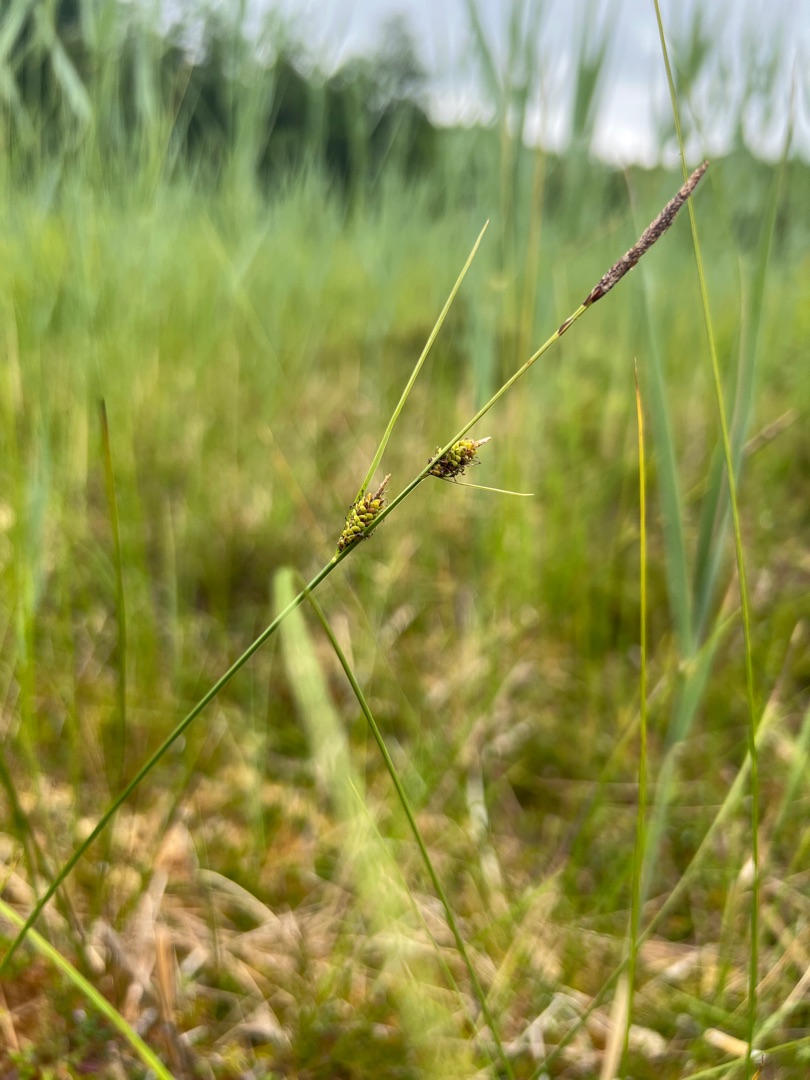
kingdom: Plantae
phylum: Tracheophyta
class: Liliopsida
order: Poales
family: Cyperaceae
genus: Carex
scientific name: Carex lasiocarpa
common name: Tråd-star
